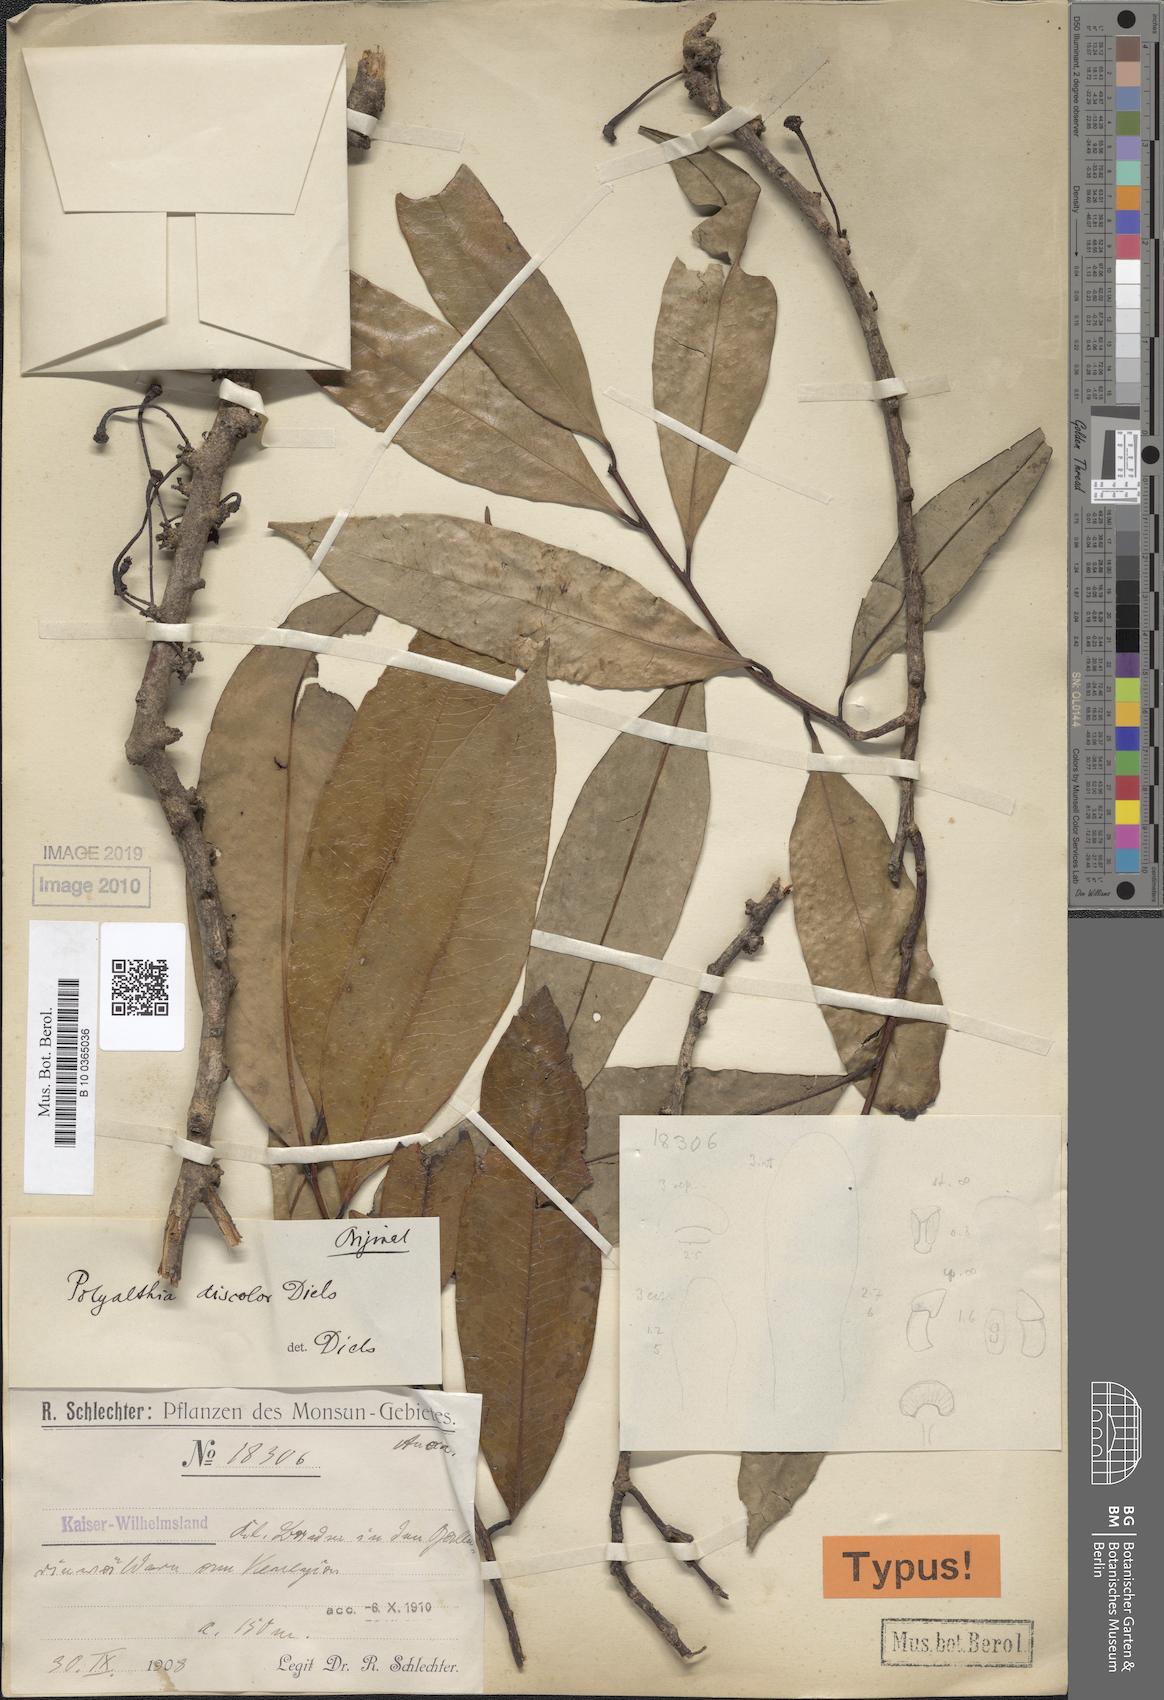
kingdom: Plantae
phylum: Tracheophyta
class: Magnoliopsida
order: Magnoliales
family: Annonaceae
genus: Maasia
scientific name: Maasia discolor
